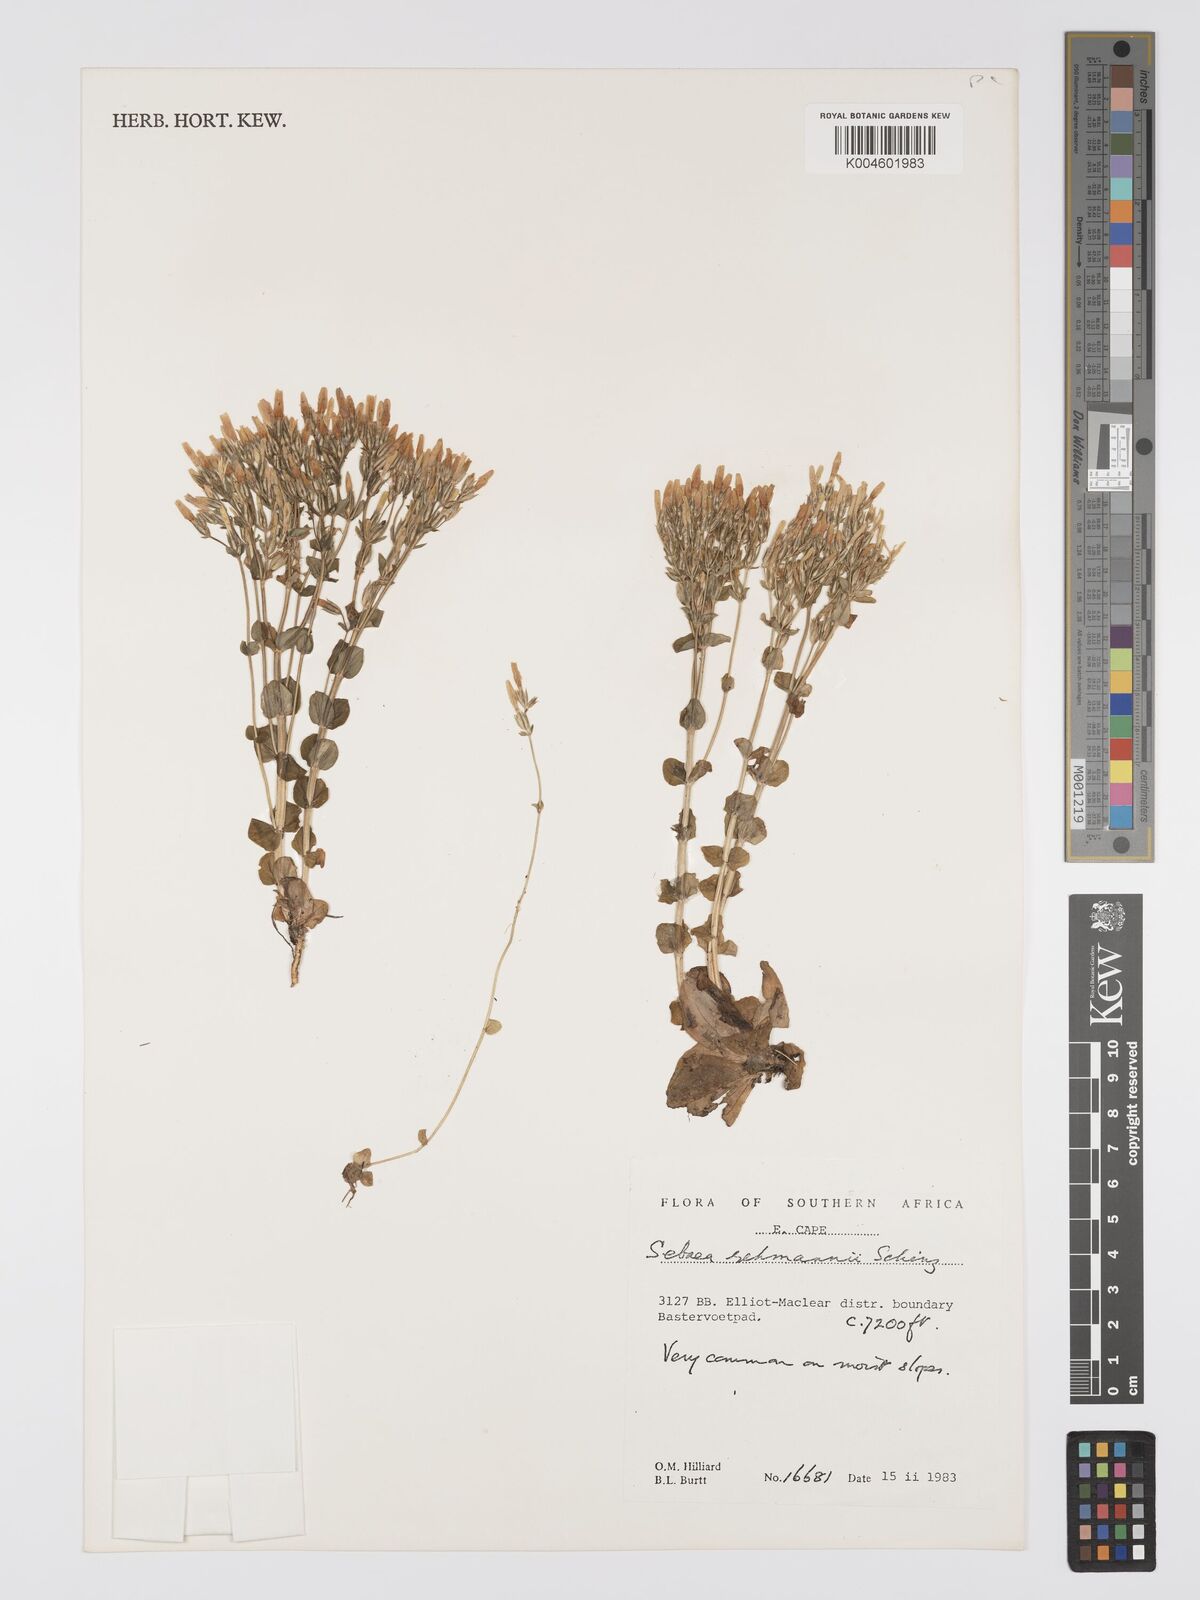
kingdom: Plantae
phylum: Tracheophyta
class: Magnoliopsida
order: Gentianales
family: Gentianaceae
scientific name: Gentianaceae
